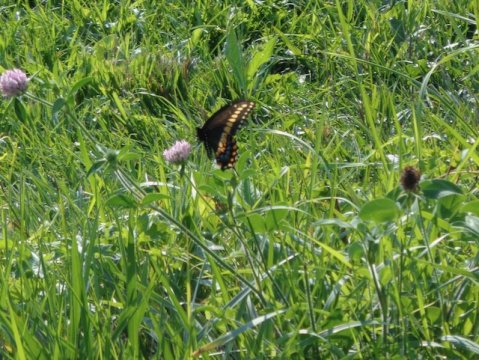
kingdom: Animalia
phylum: Arthropoda
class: Insecta
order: Lepidoptera
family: Papilionidae
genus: Papilio
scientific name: Papilio polyxenes
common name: Black Swallowtail
